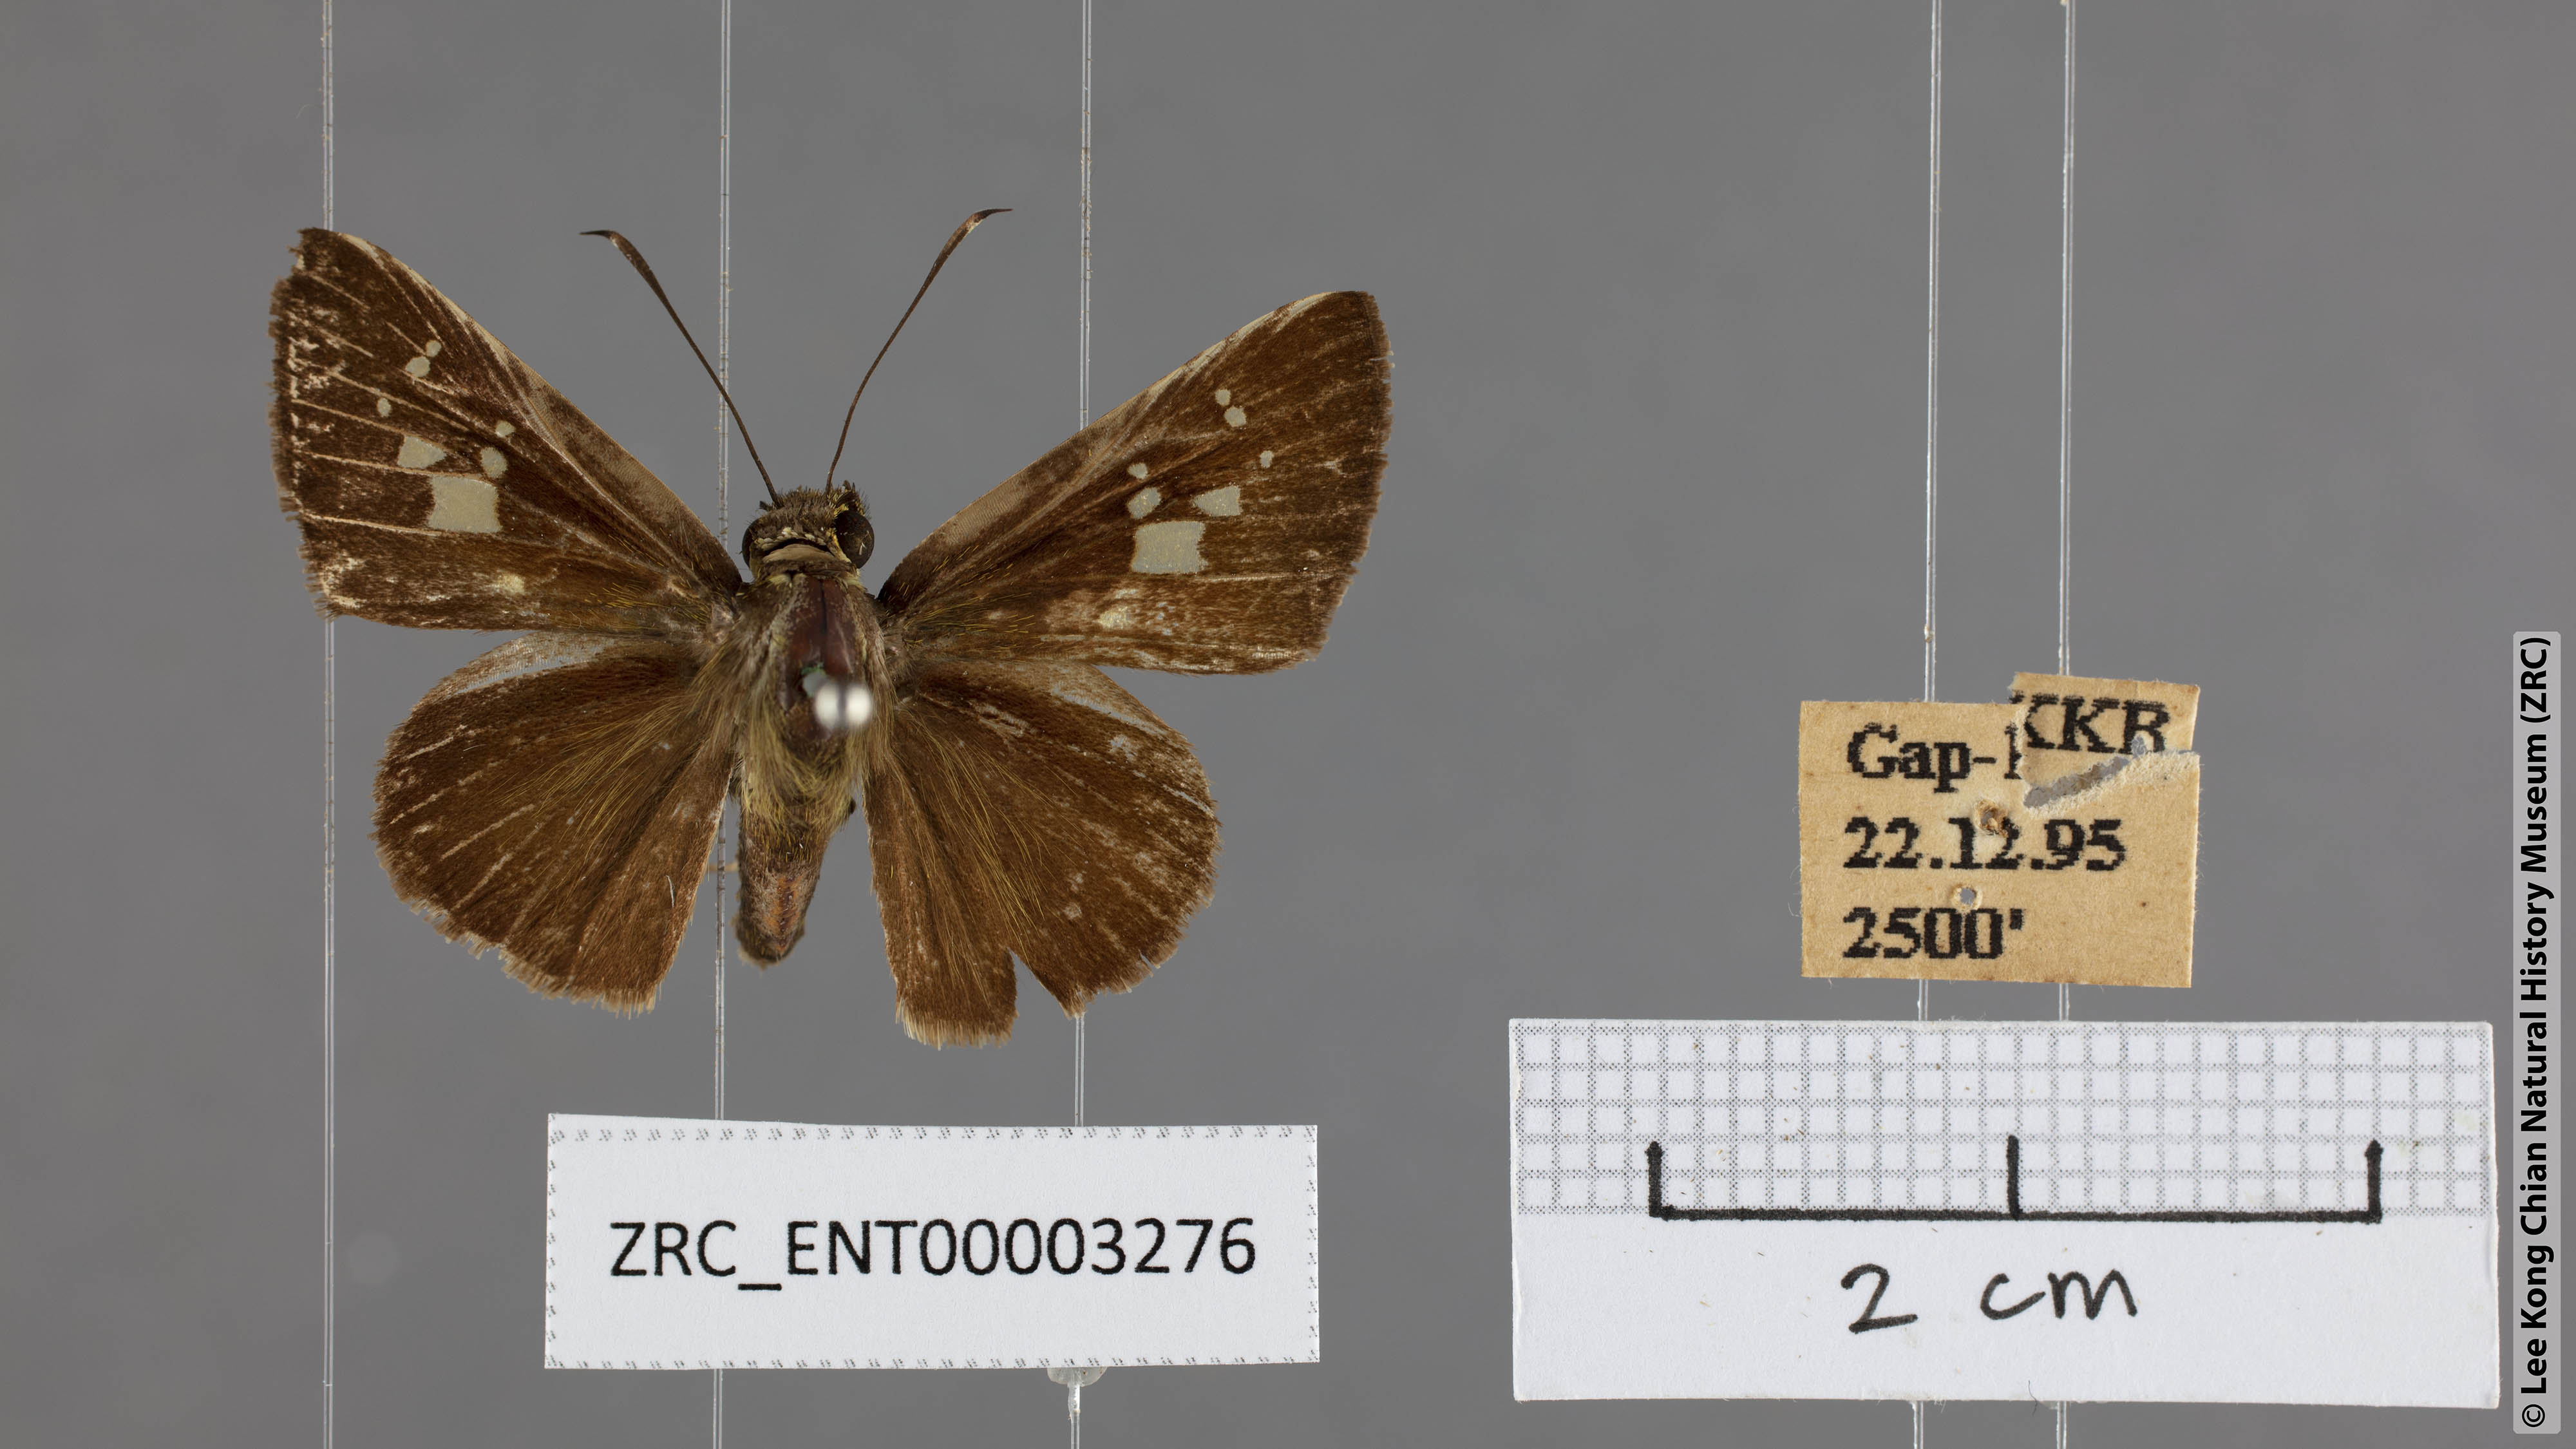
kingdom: Animalia
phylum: Arthropoda
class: Insecta
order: Lepidoptera
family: Hesperiidae
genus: Hyarotis
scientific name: Hyarotis microstictum
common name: Small brush flitter
